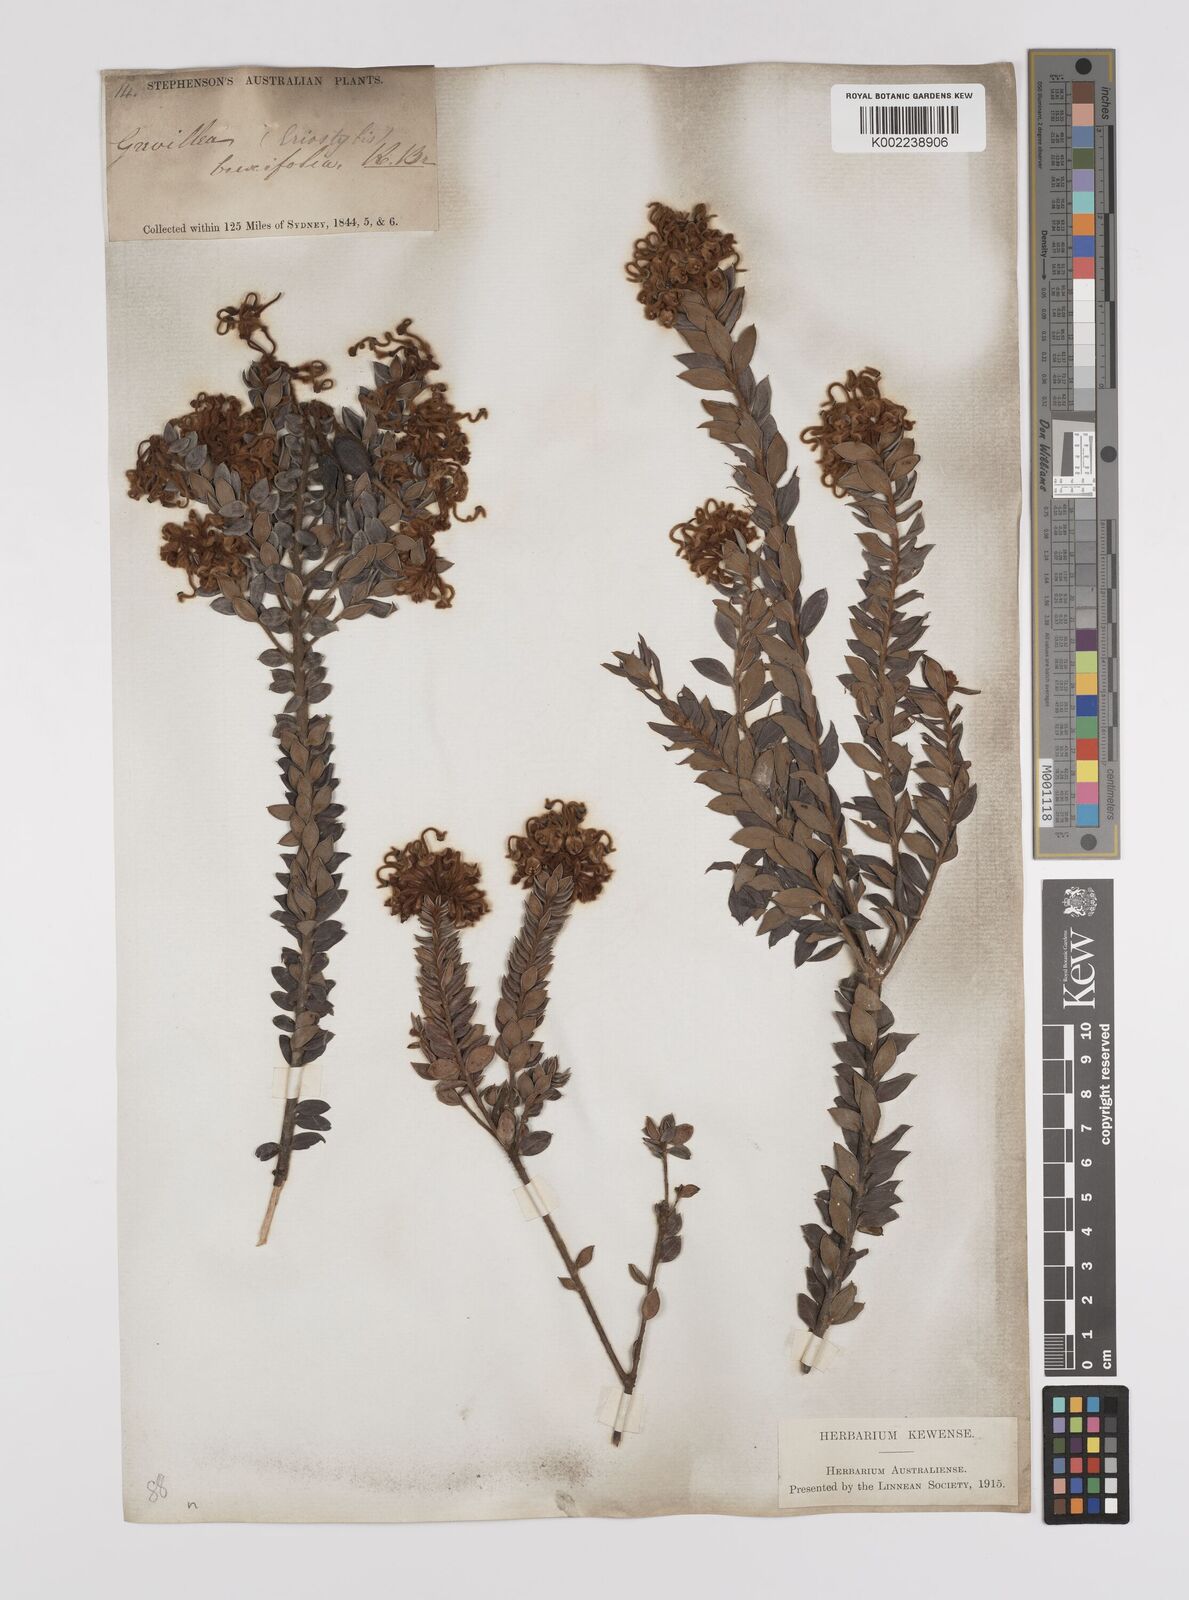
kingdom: Plantae
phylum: Tracheophyta
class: Magnoliopsida
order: Proteales
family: Proteaceae
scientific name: Proteaceae
